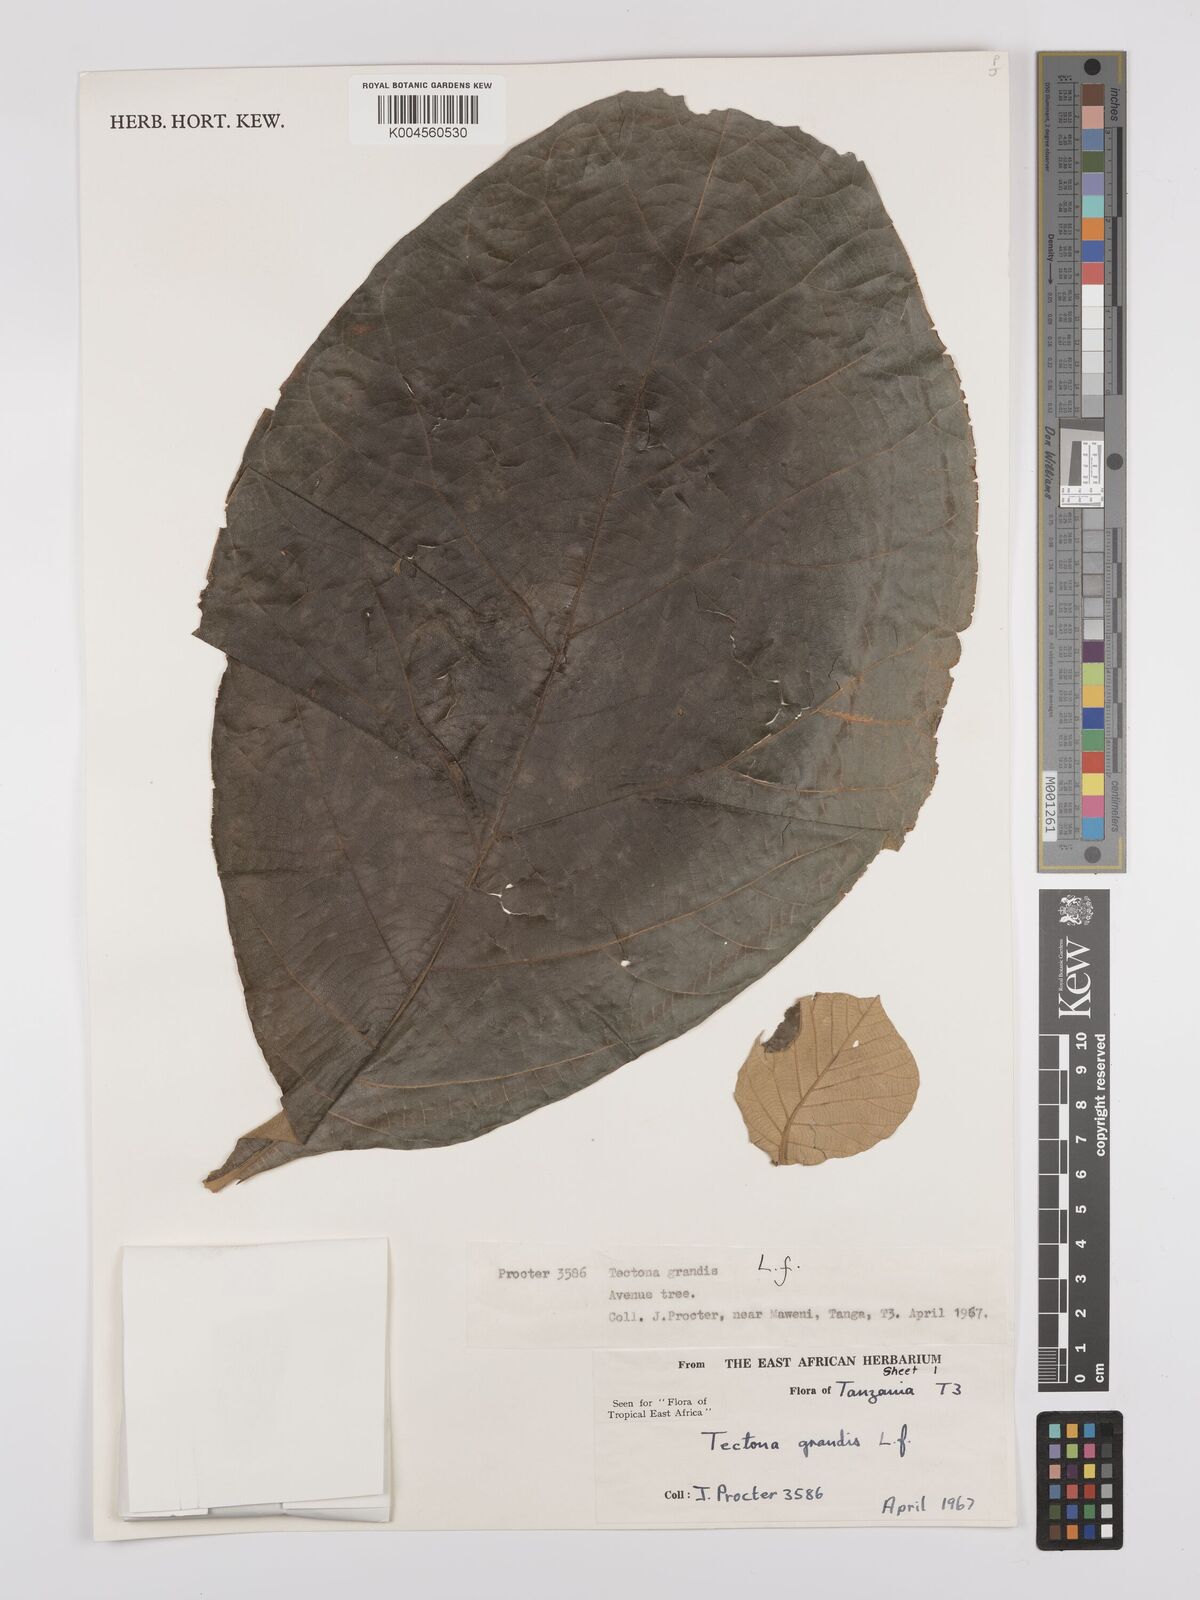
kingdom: Plantae
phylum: Tracheophyta
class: Magnoliopsida
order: Lamiales
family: Lamiaceae
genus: Tectona
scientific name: Tectona grandis
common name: Teak
